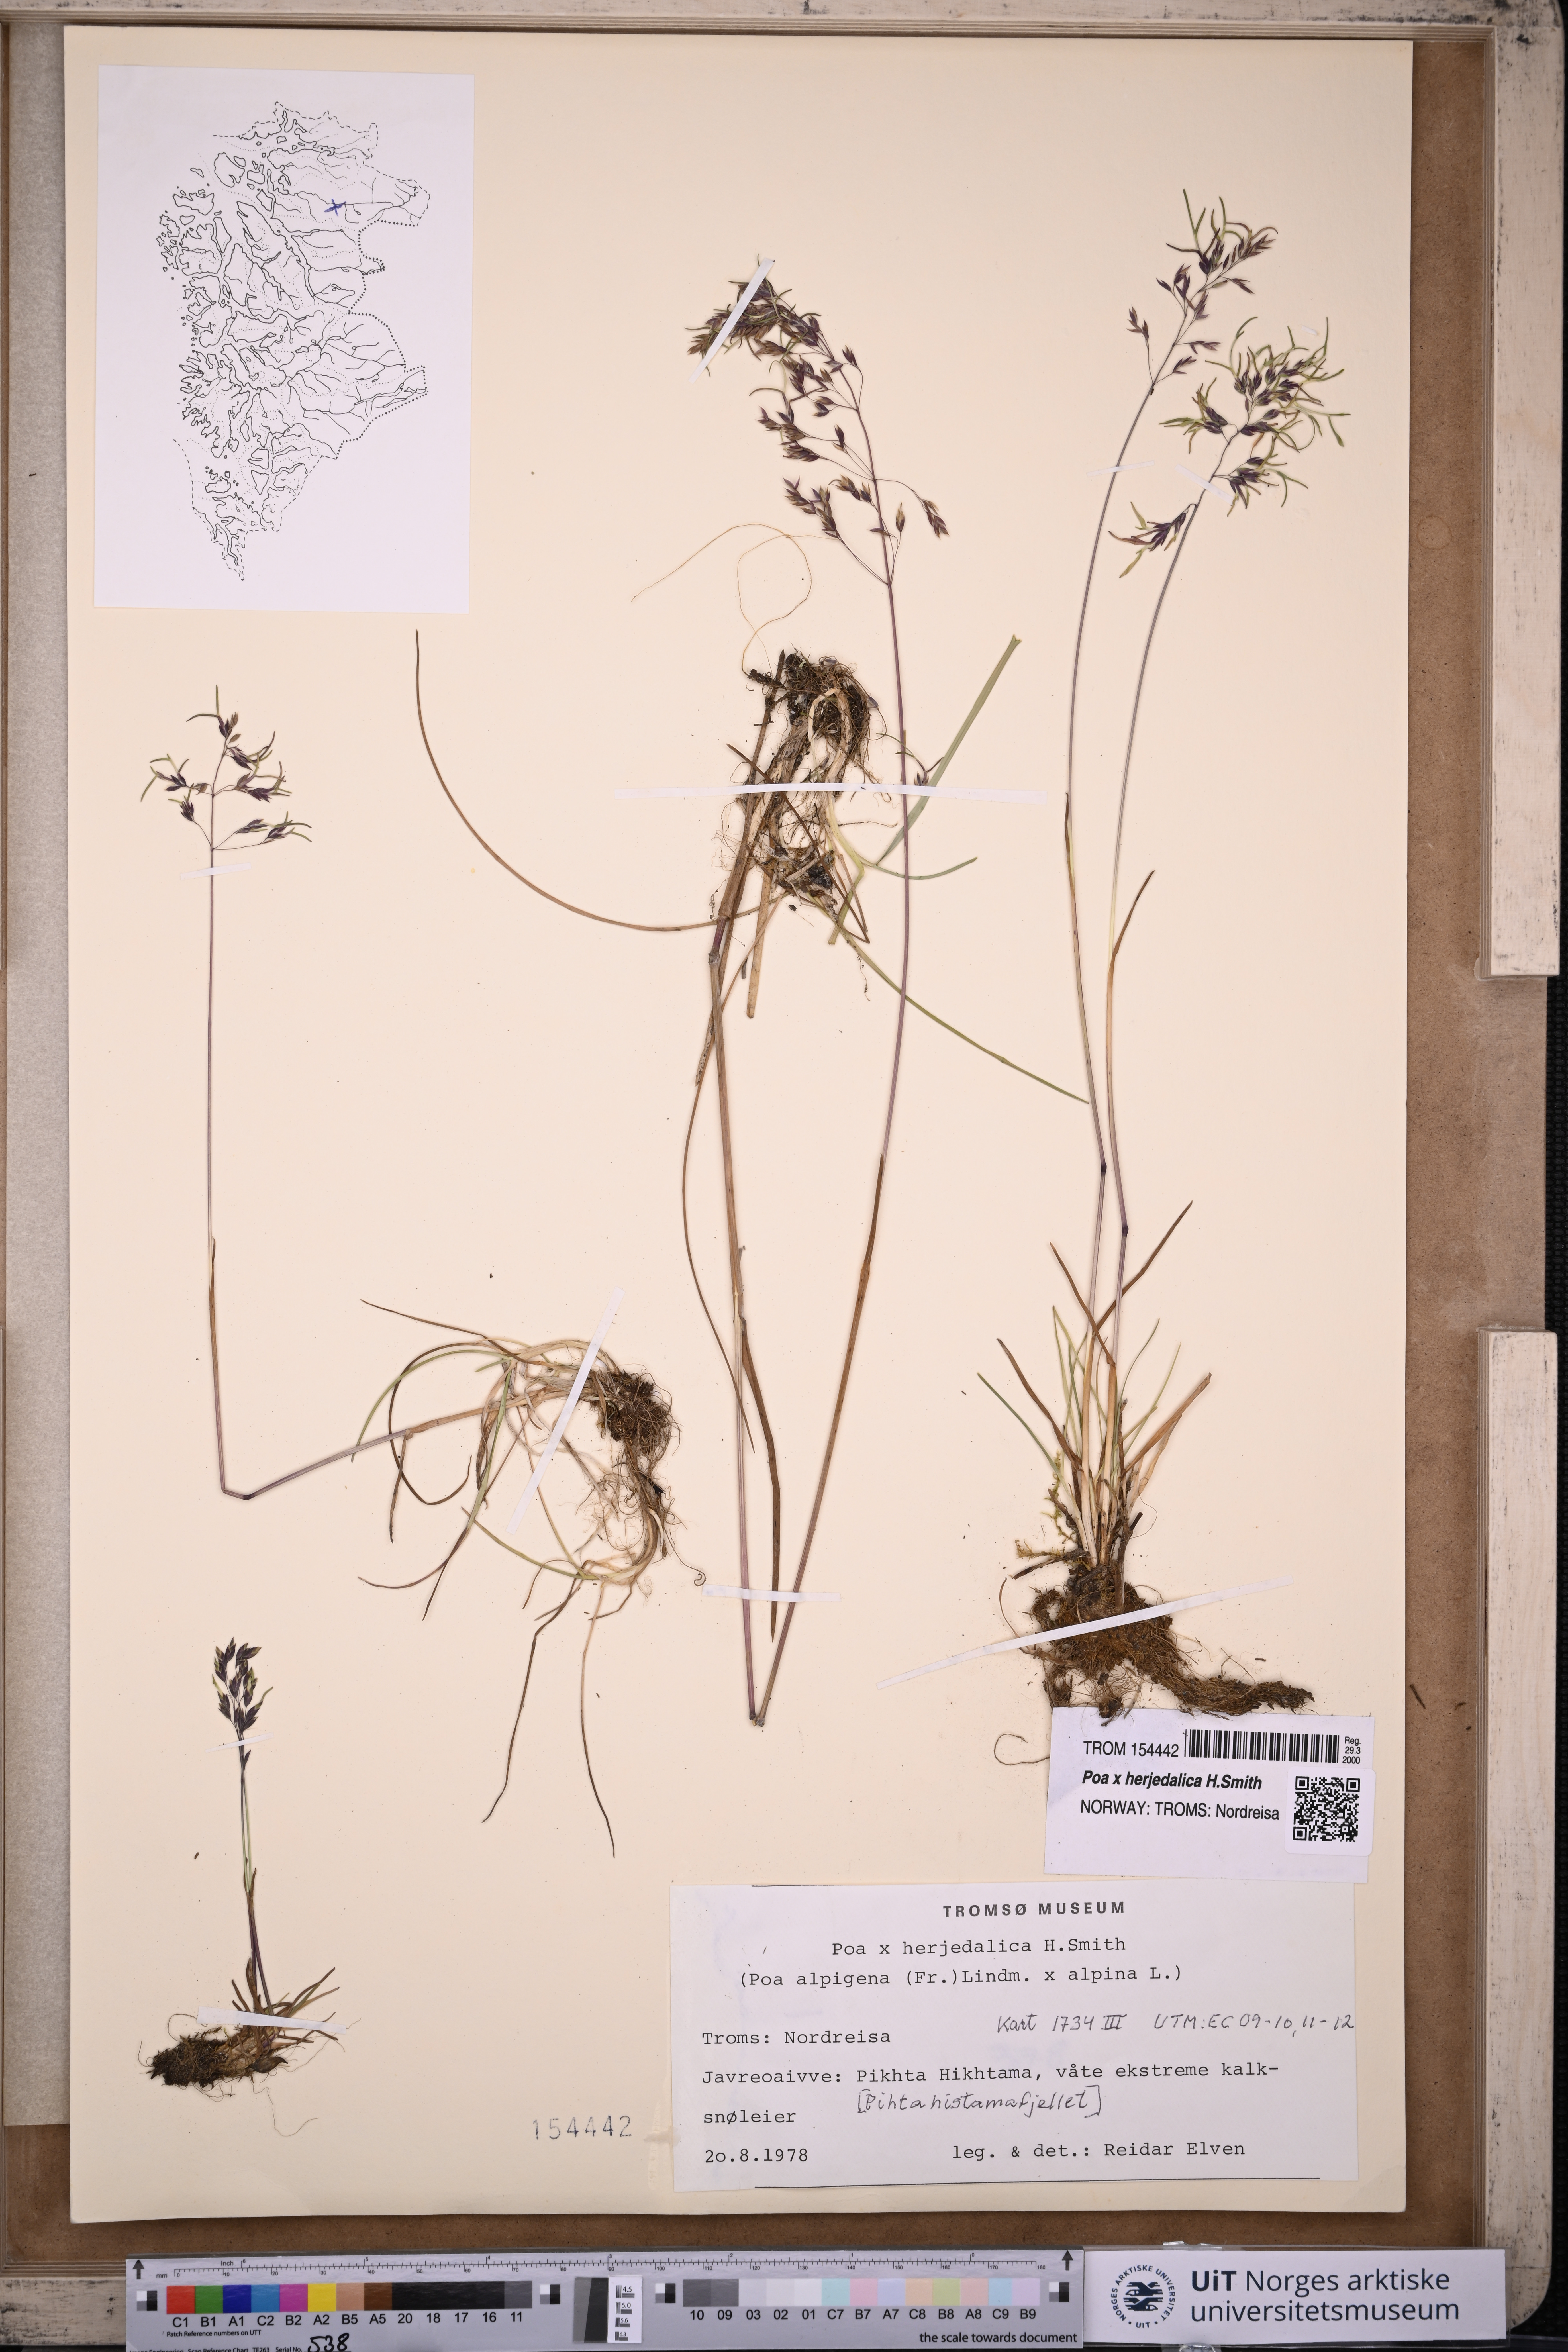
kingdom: Plantae
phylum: Tracheophyta
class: Liliopsida
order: Poales
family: Poaceae
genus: Poa
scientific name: Poa herjedalica
